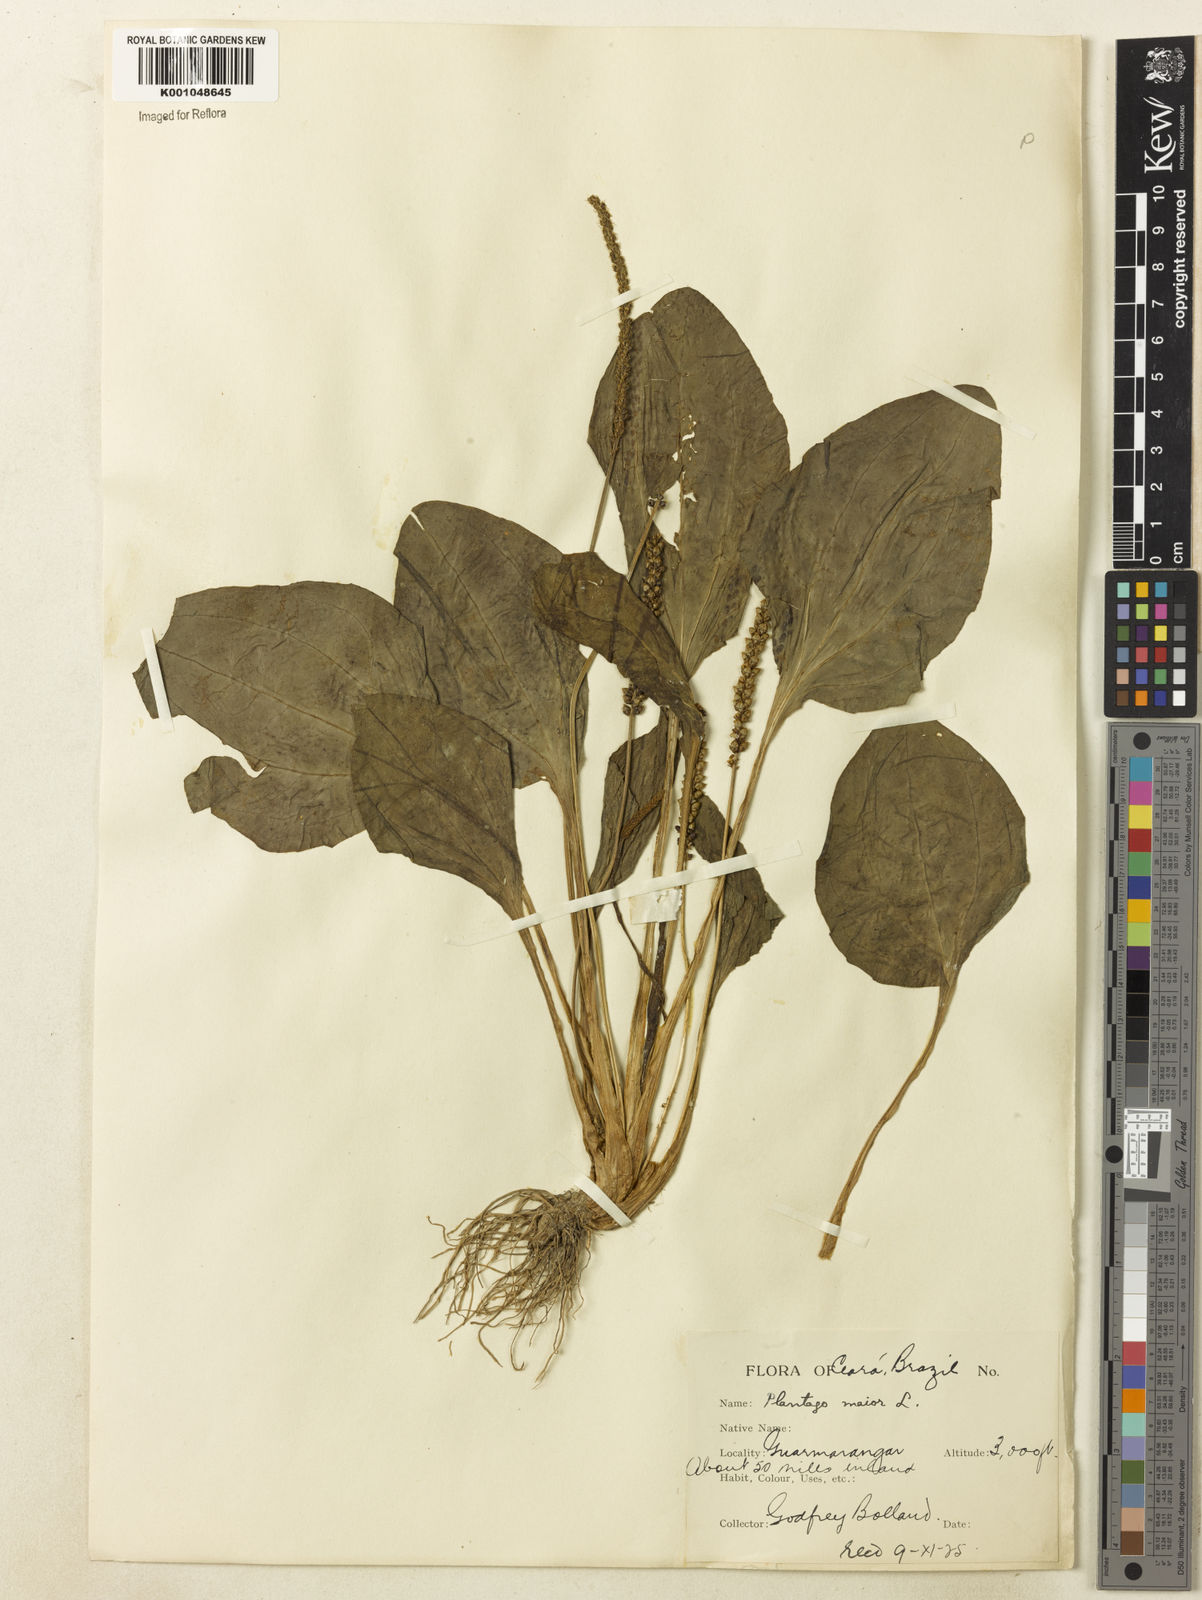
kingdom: Plantae
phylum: Tracheophyta
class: Magnoliopsida
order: Lamiales
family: Plantaginaceae
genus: Plantago
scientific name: Plantago major
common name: Common plantain
